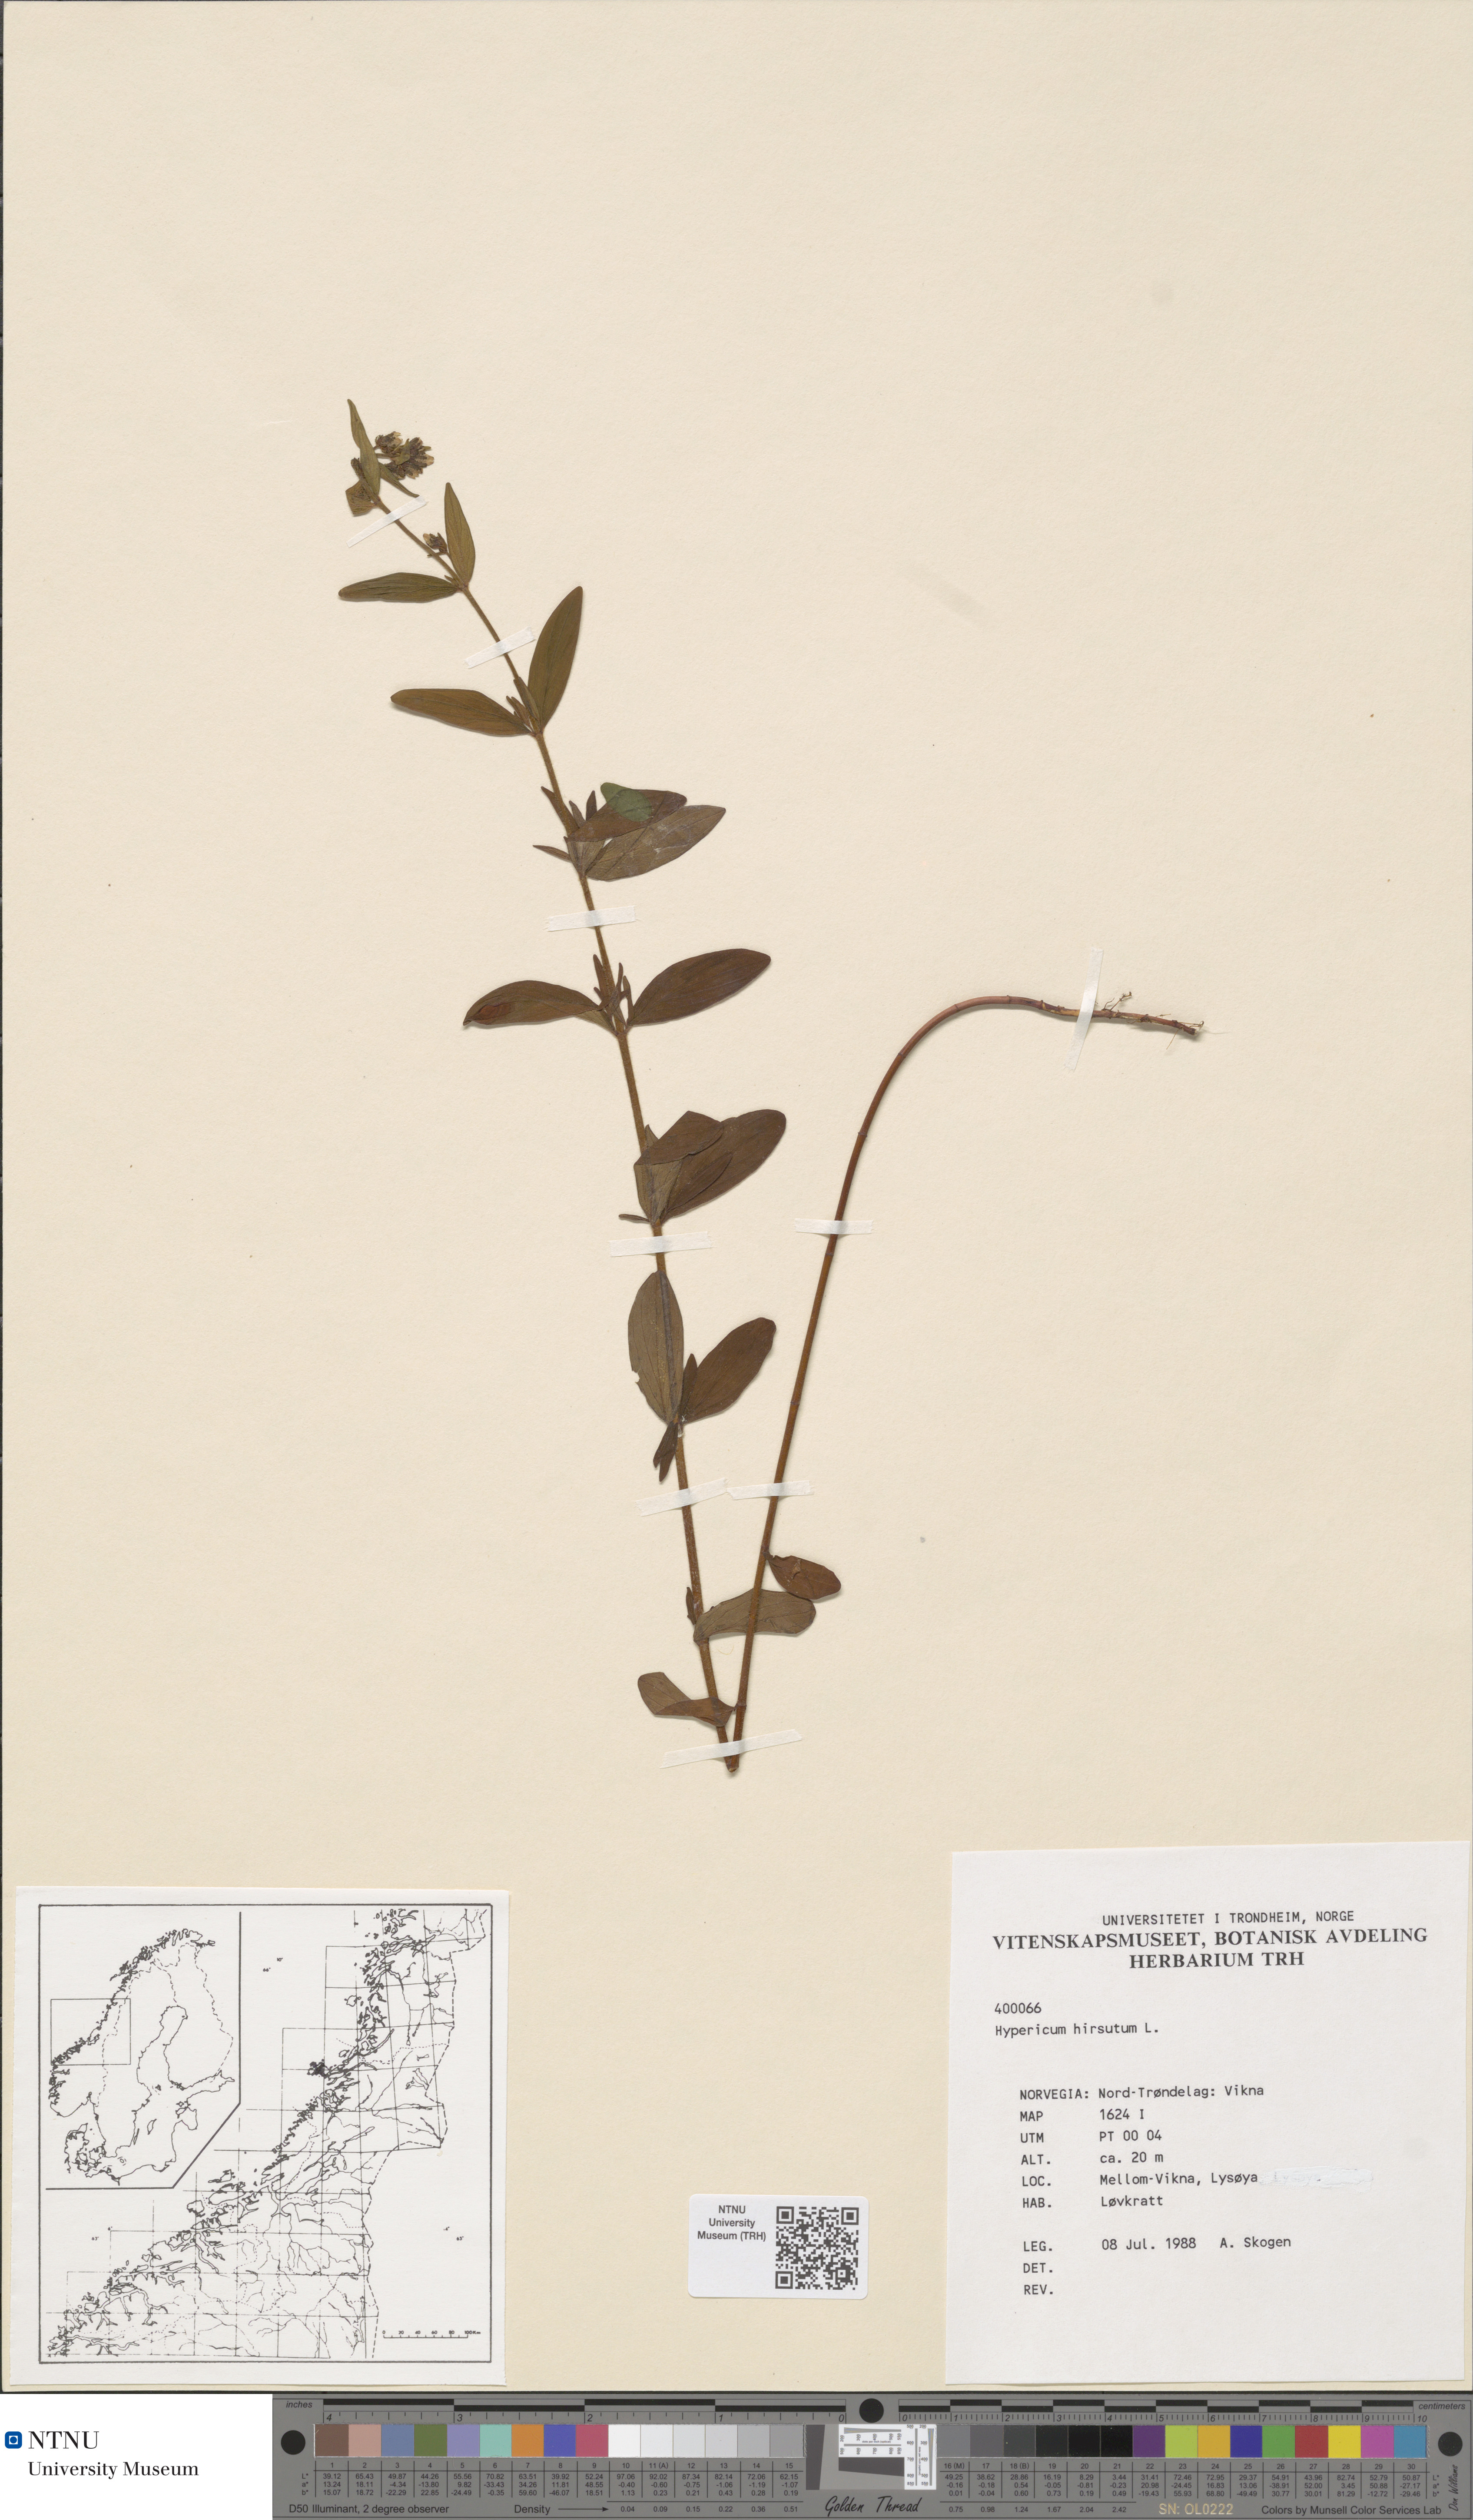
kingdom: Plantae
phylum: Tracheophyta
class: Magnoliopsida
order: Malpighiales
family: Hypericaceae
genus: Hypericum
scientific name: Hypericum hirsutum
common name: Hairy st. john's-wort
